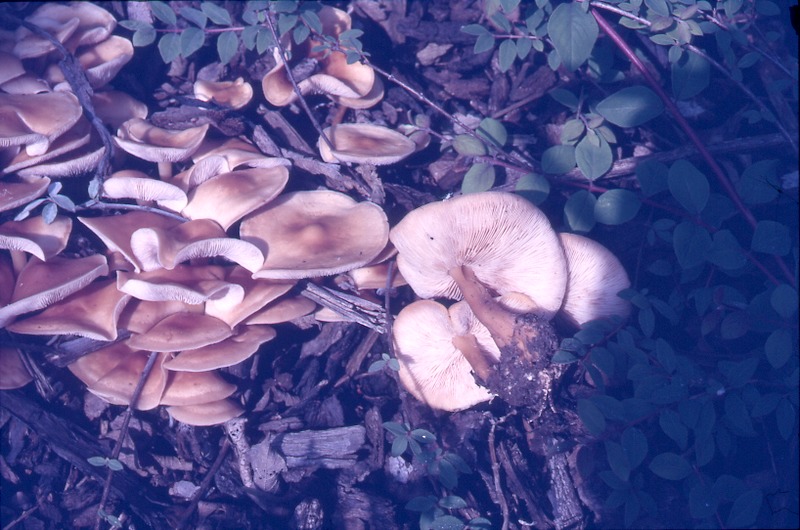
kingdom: Fungi
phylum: Basidiomycota
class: Agaricomycetes
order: Agaricales
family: Omphalotaceae
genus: Gymnopus
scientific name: Gymnopus erythropus
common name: Redleg toughshank
